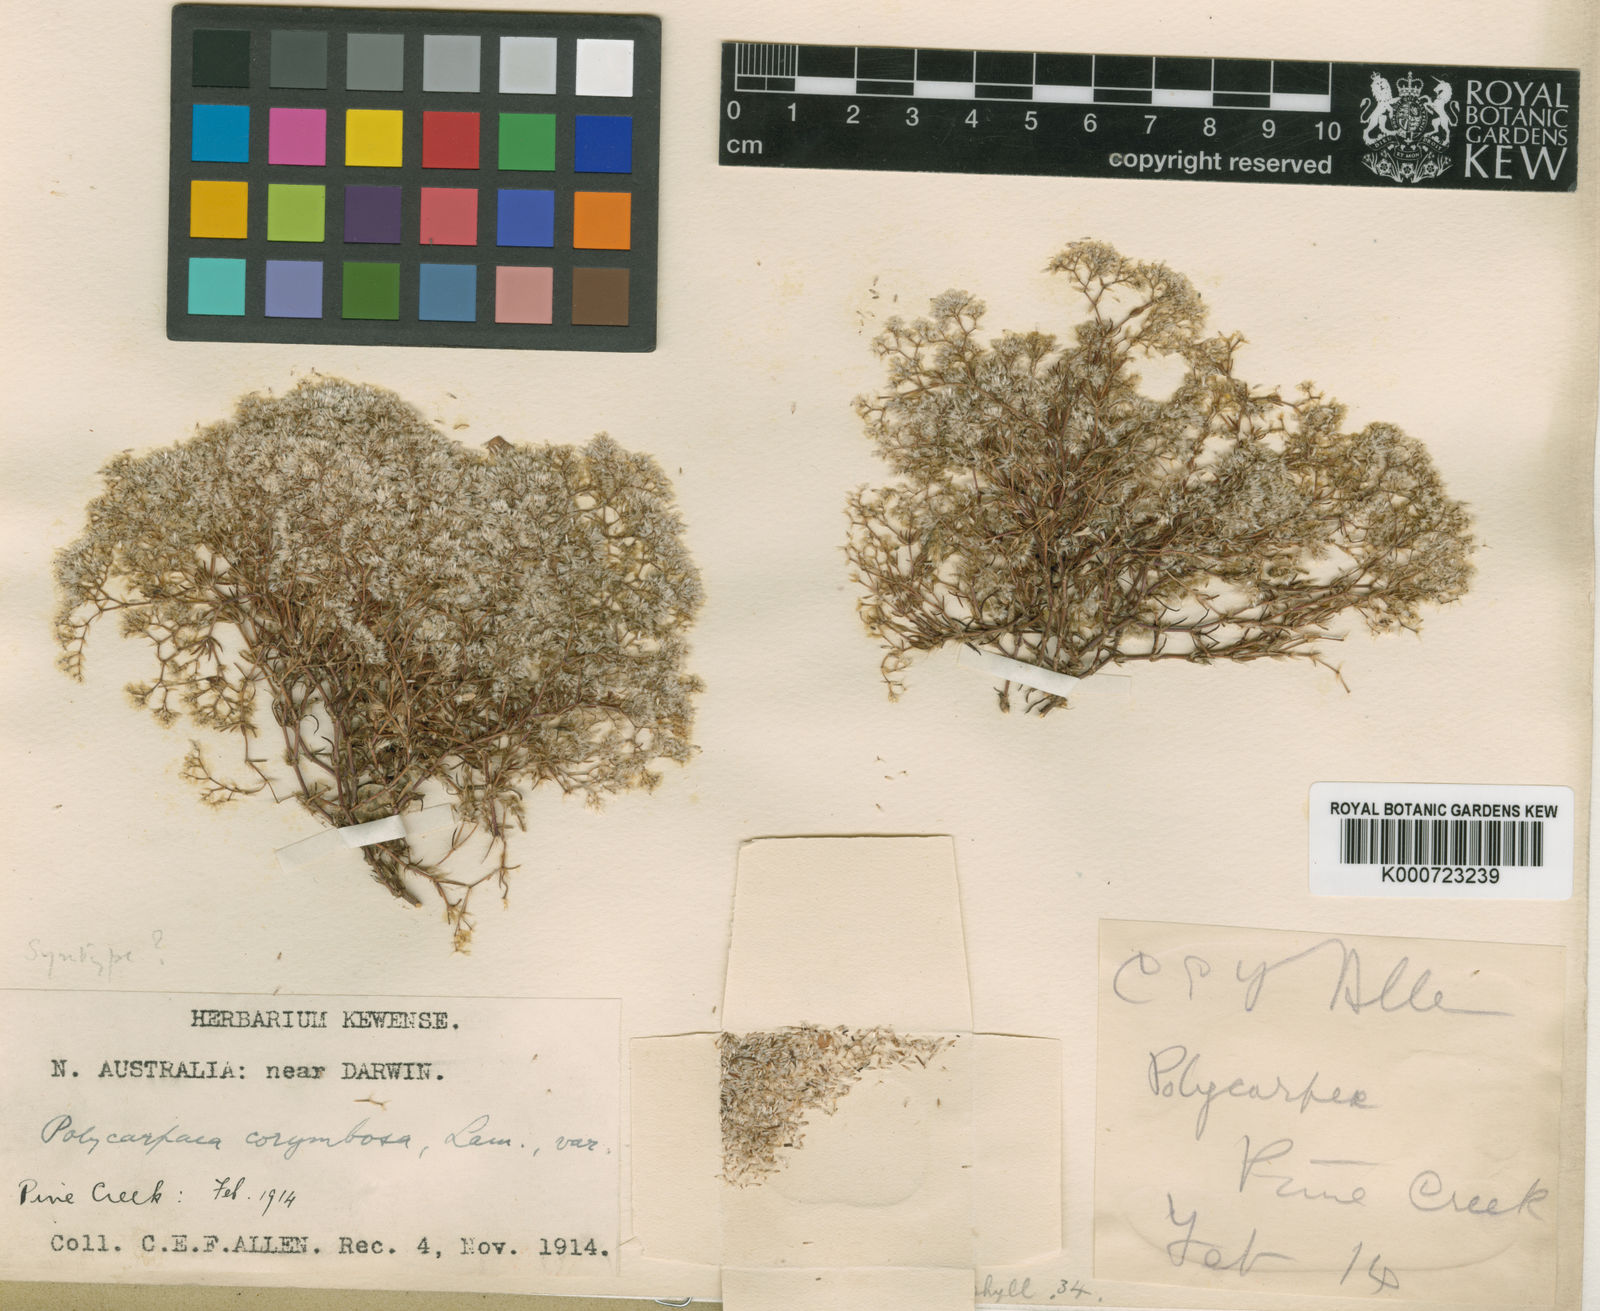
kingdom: Plantae
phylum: Tracheophyta
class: Magnoliopsida
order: Caryophyllales
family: Caryophyllaceae
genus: Polycarpaea
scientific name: Polycarpaea holtzei
